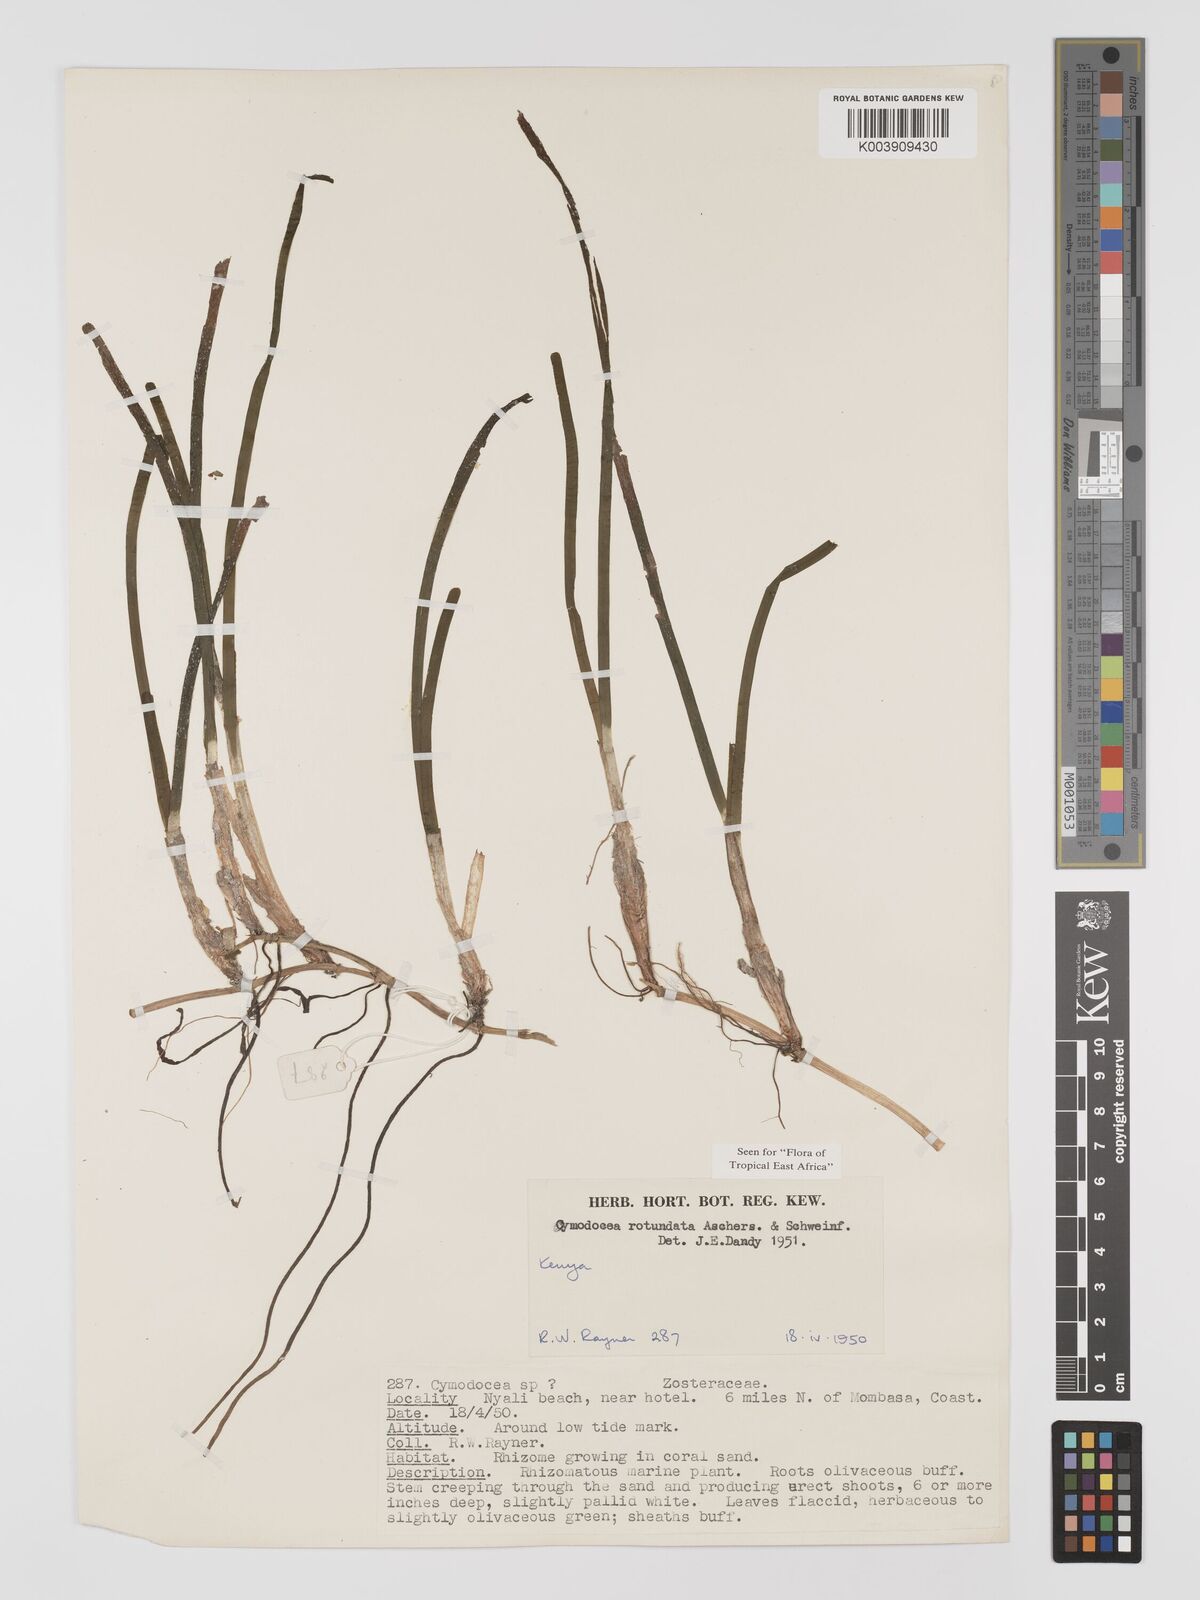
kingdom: Plantae
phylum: Tracheophyta
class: Liliopsida
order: Alismatales
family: Cymodoceaceae
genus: Cymodocea
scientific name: Cymodocea rotundata
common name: Species code: cr
